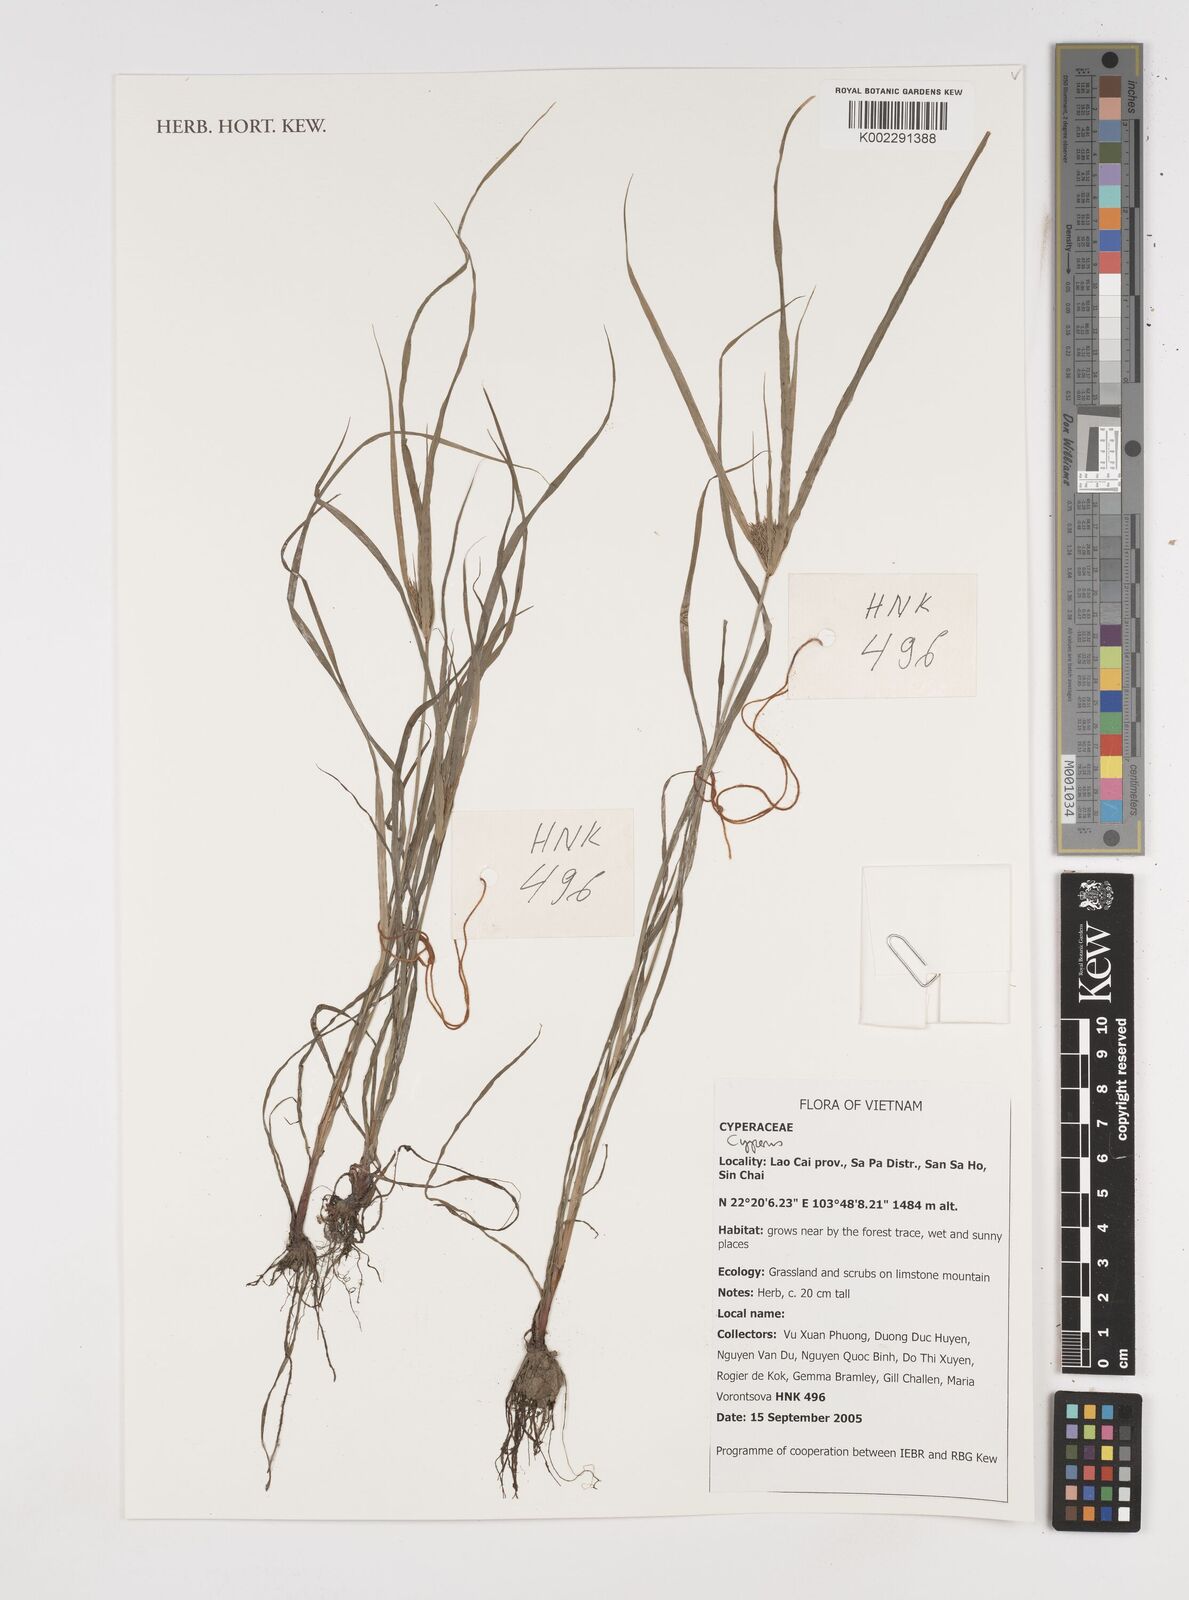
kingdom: Plantae
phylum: Tracheophyta
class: Liliopsida
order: Poales
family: Cyperaceae
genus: Cyperus
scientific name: Cyperus
